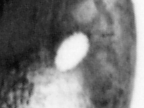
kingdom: Animalia
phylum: Chordata
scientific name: Chordata
